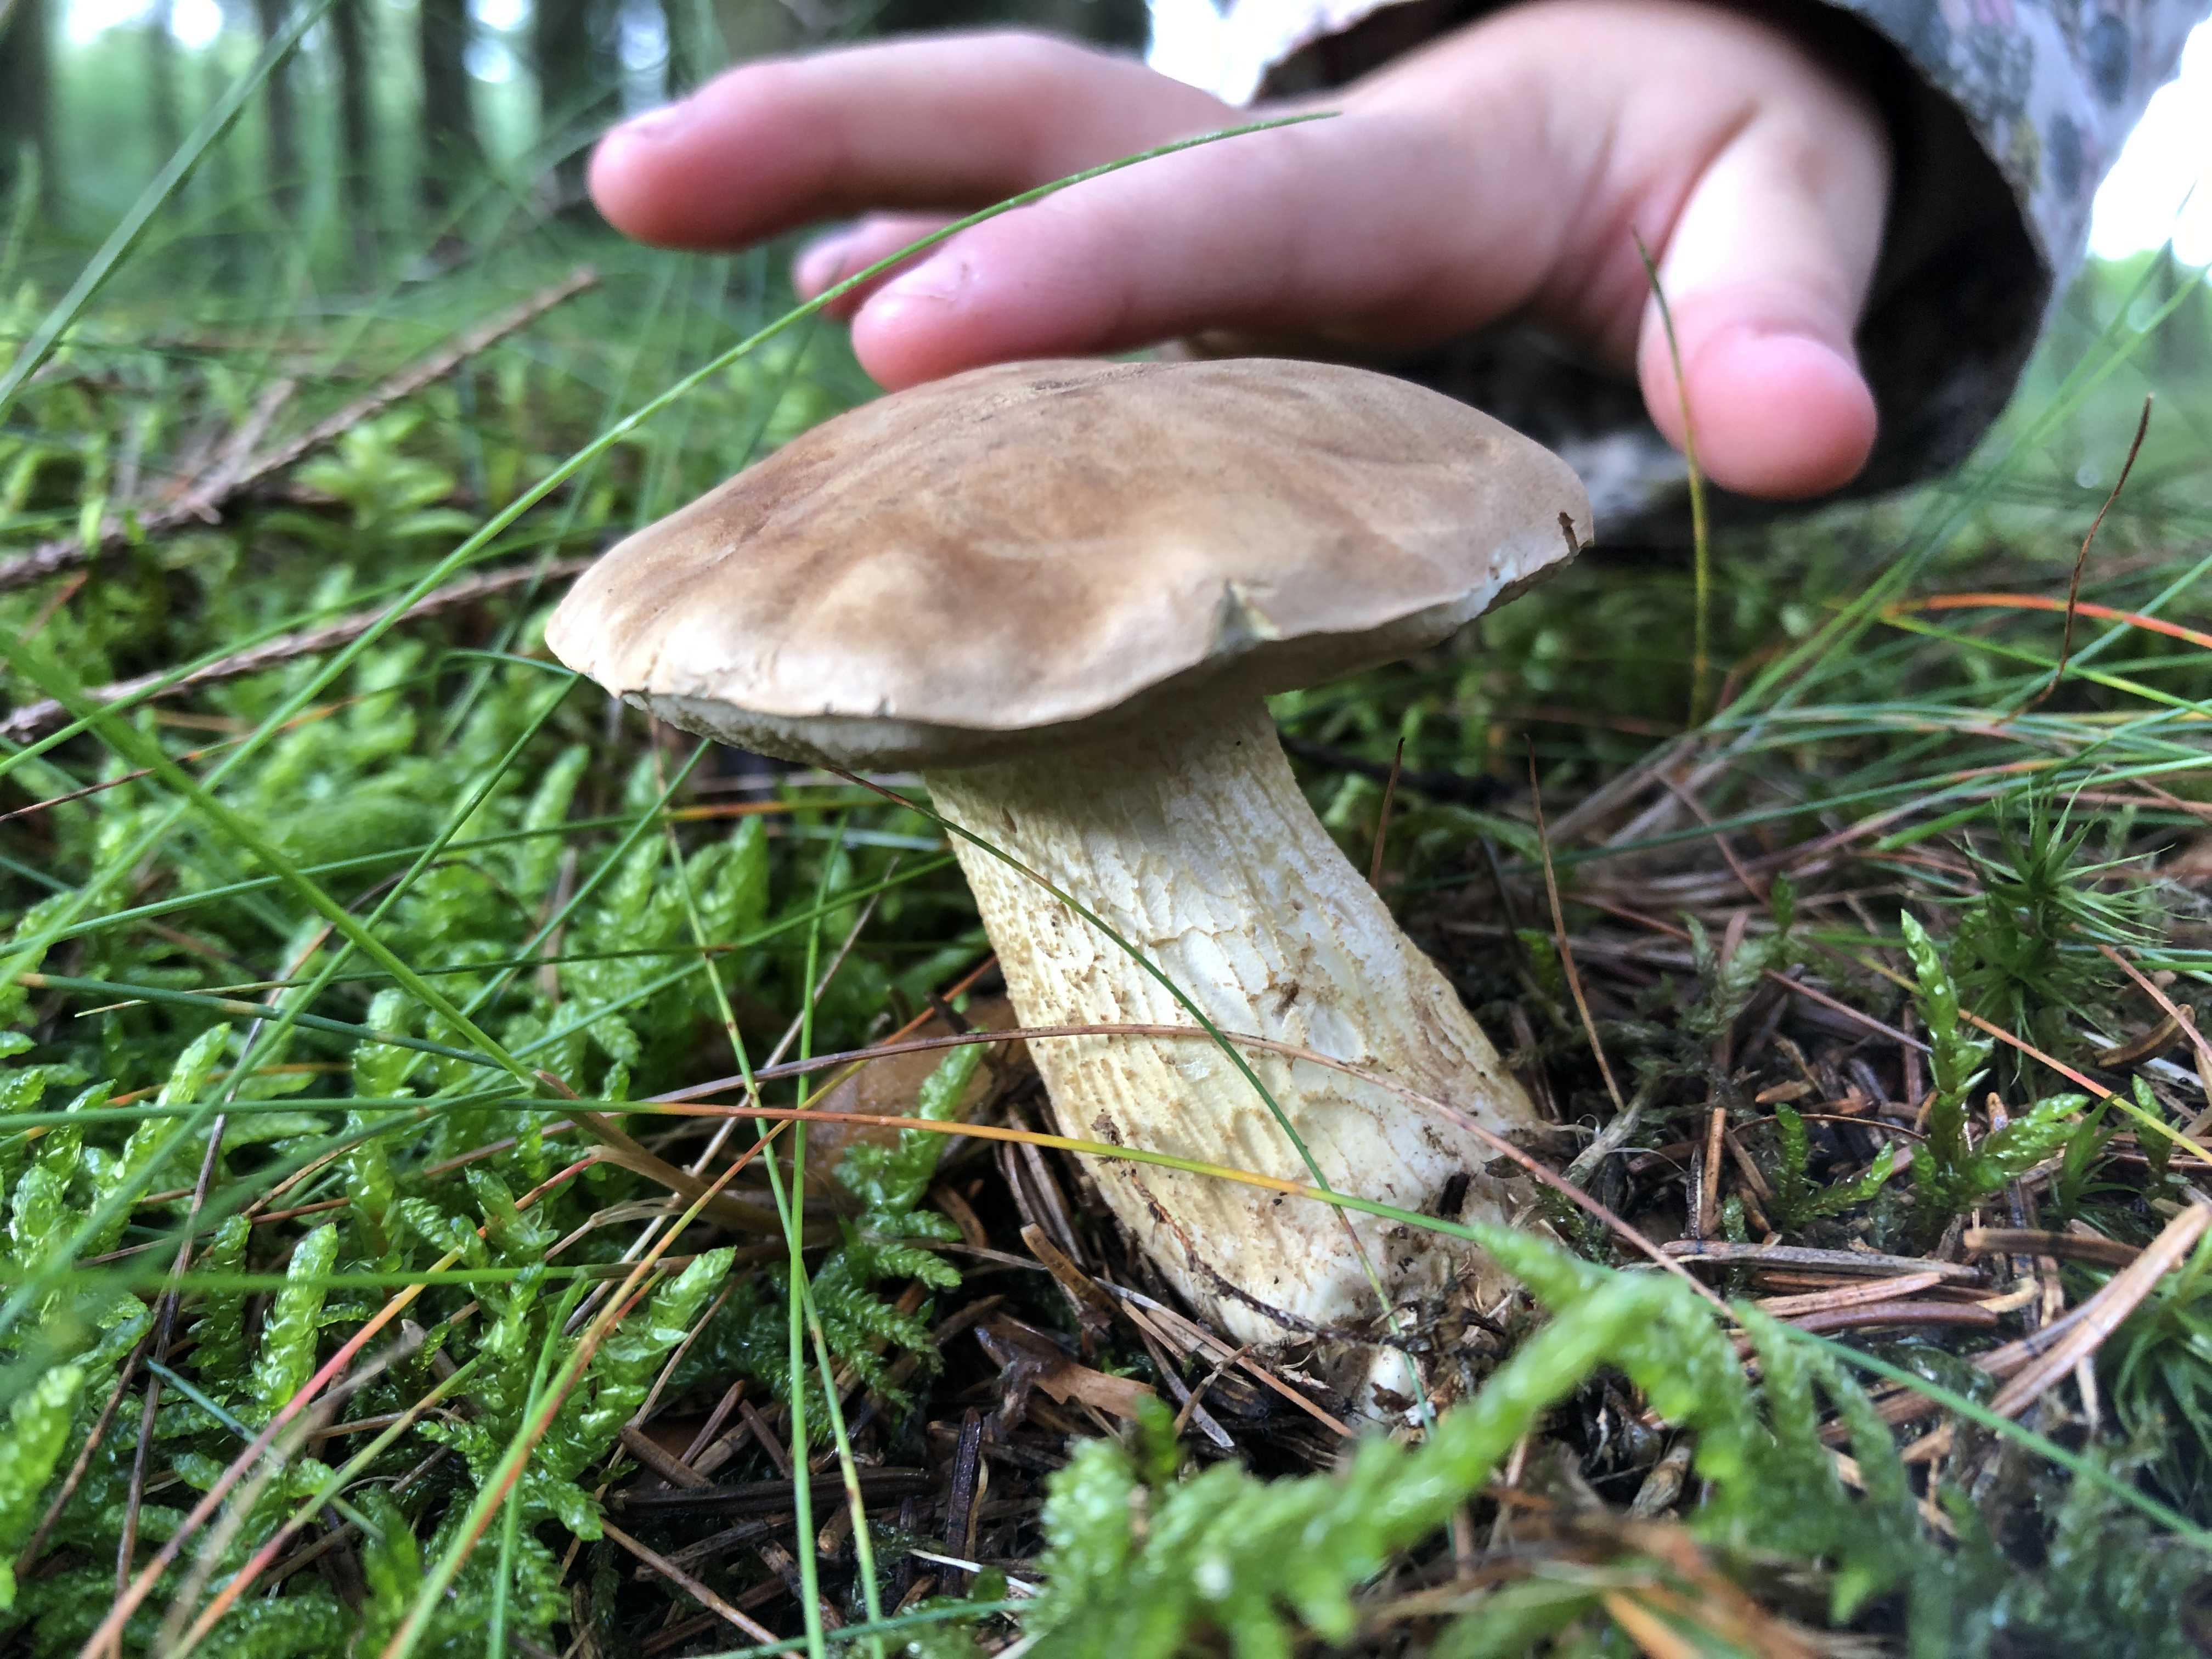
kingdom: Fungi
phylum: Basidiomycota
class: Agaricomycetes
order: Boletales
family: Boletaceae
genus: Tylopilus
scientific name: Tylopilus felleus
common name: galderørhat
